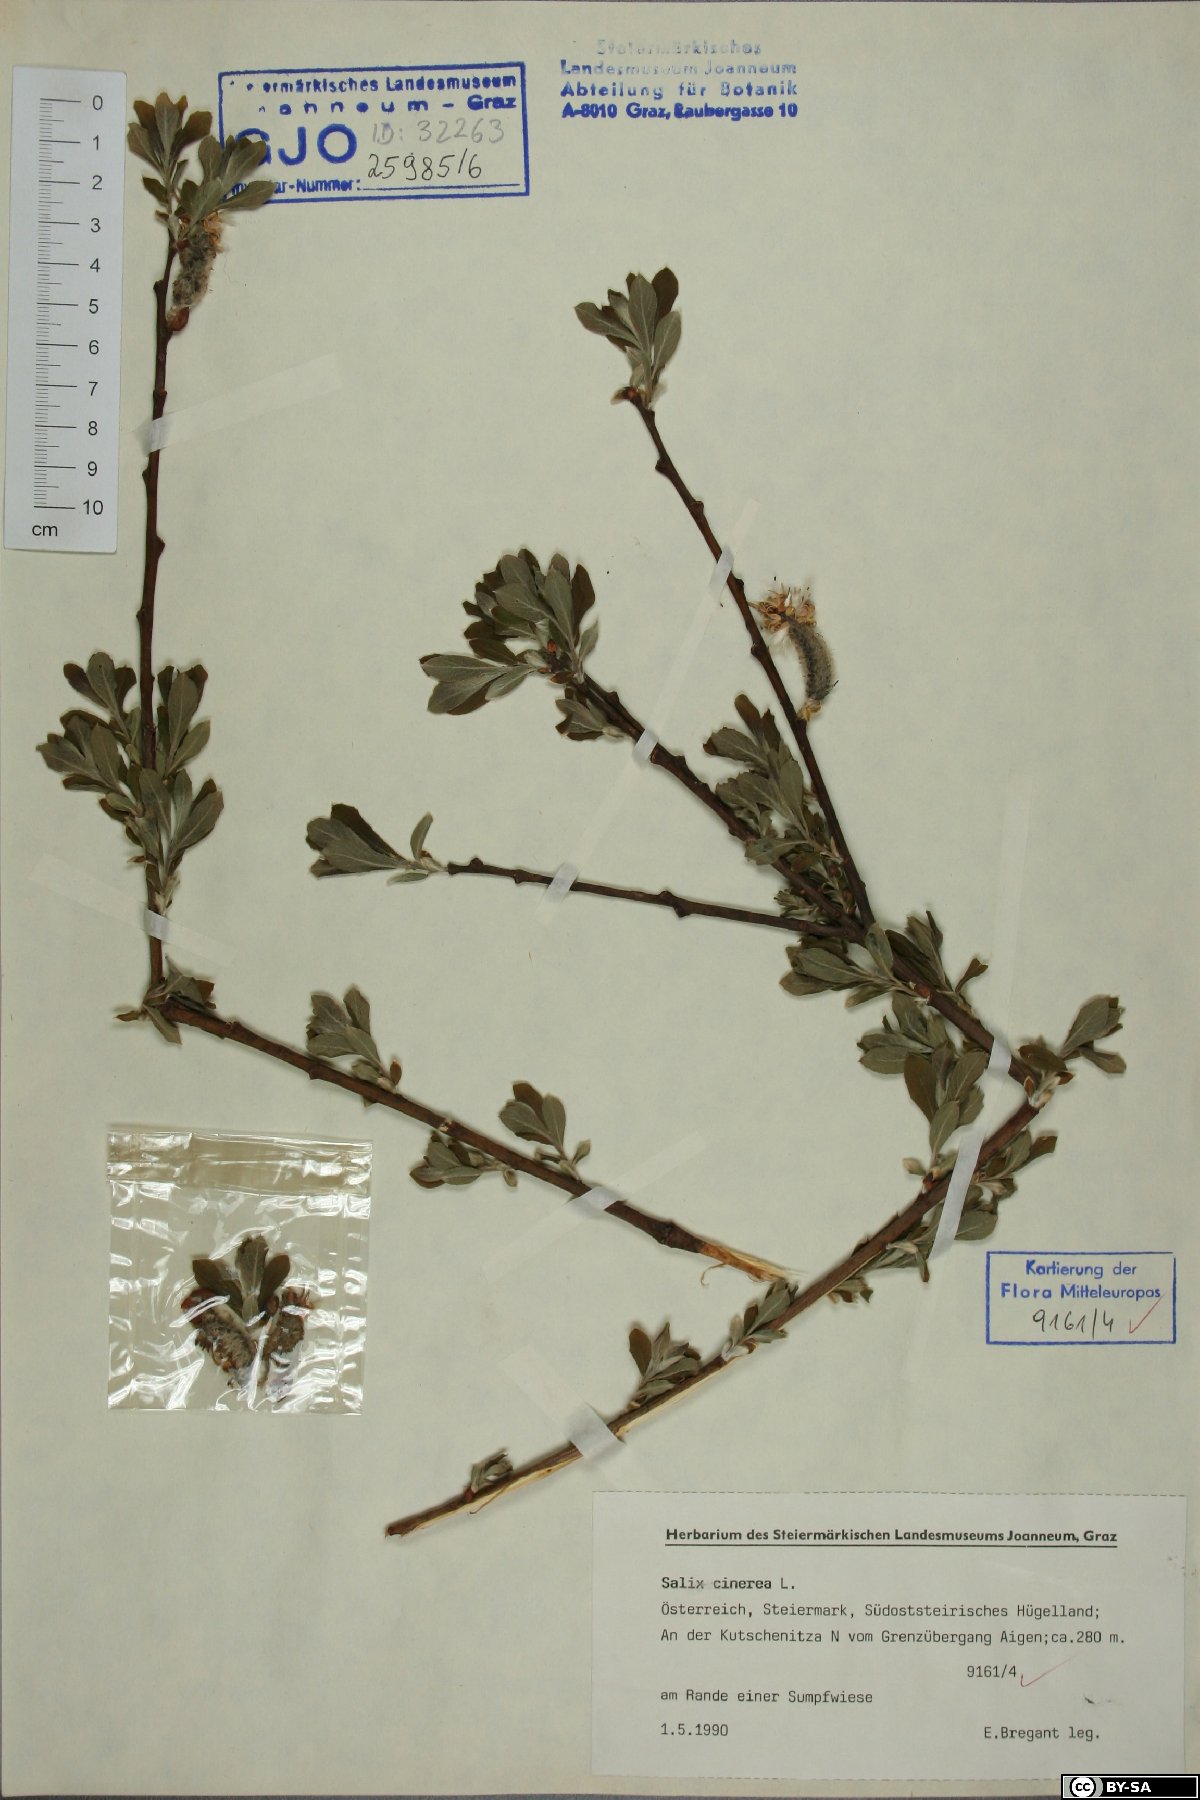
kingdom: Plantae
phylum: Tracheophyta
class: Magnoliopsida
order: Malpighiales
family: Salicaceae
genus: Salix
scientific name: Salix cinerea
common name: Common sallow
